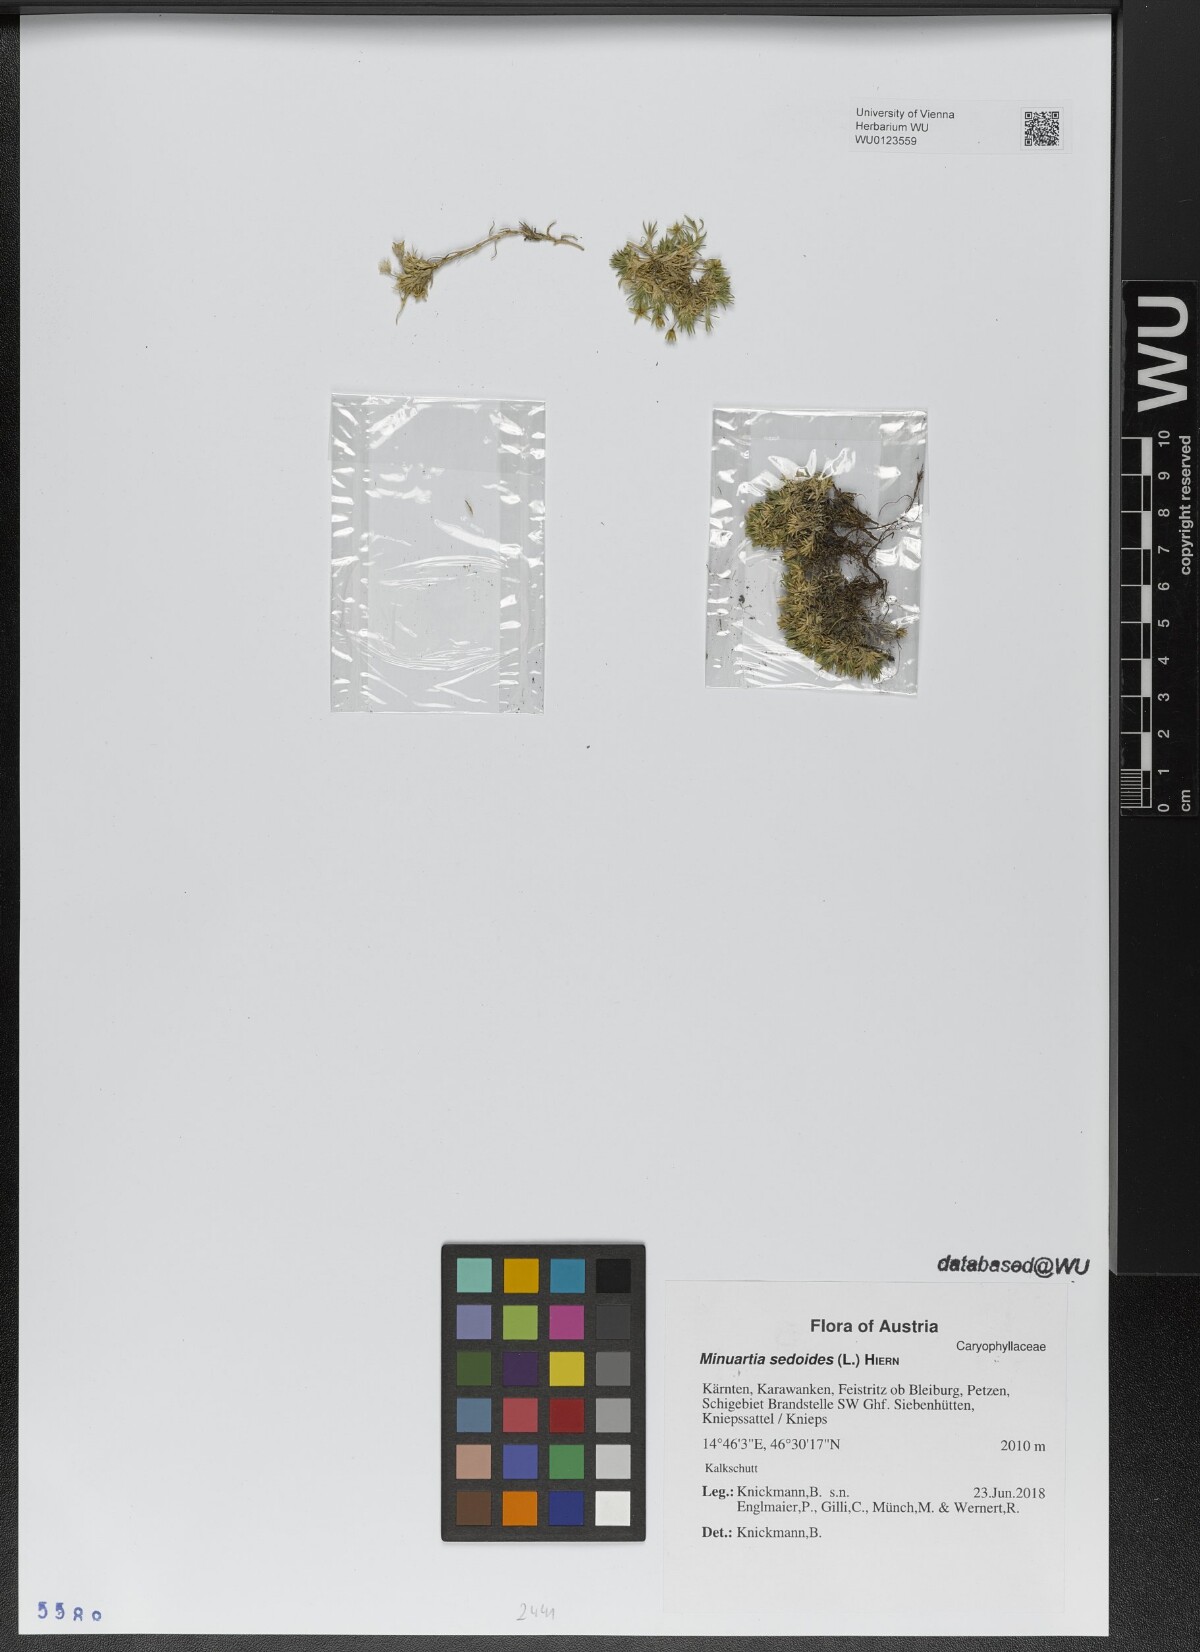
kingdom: Plantae
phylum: Tracheophyta
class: Magnoliopsida
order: Caryophyllales
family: Caryophyllaceae
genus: Cherleria
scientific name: Cherleria sedoides
